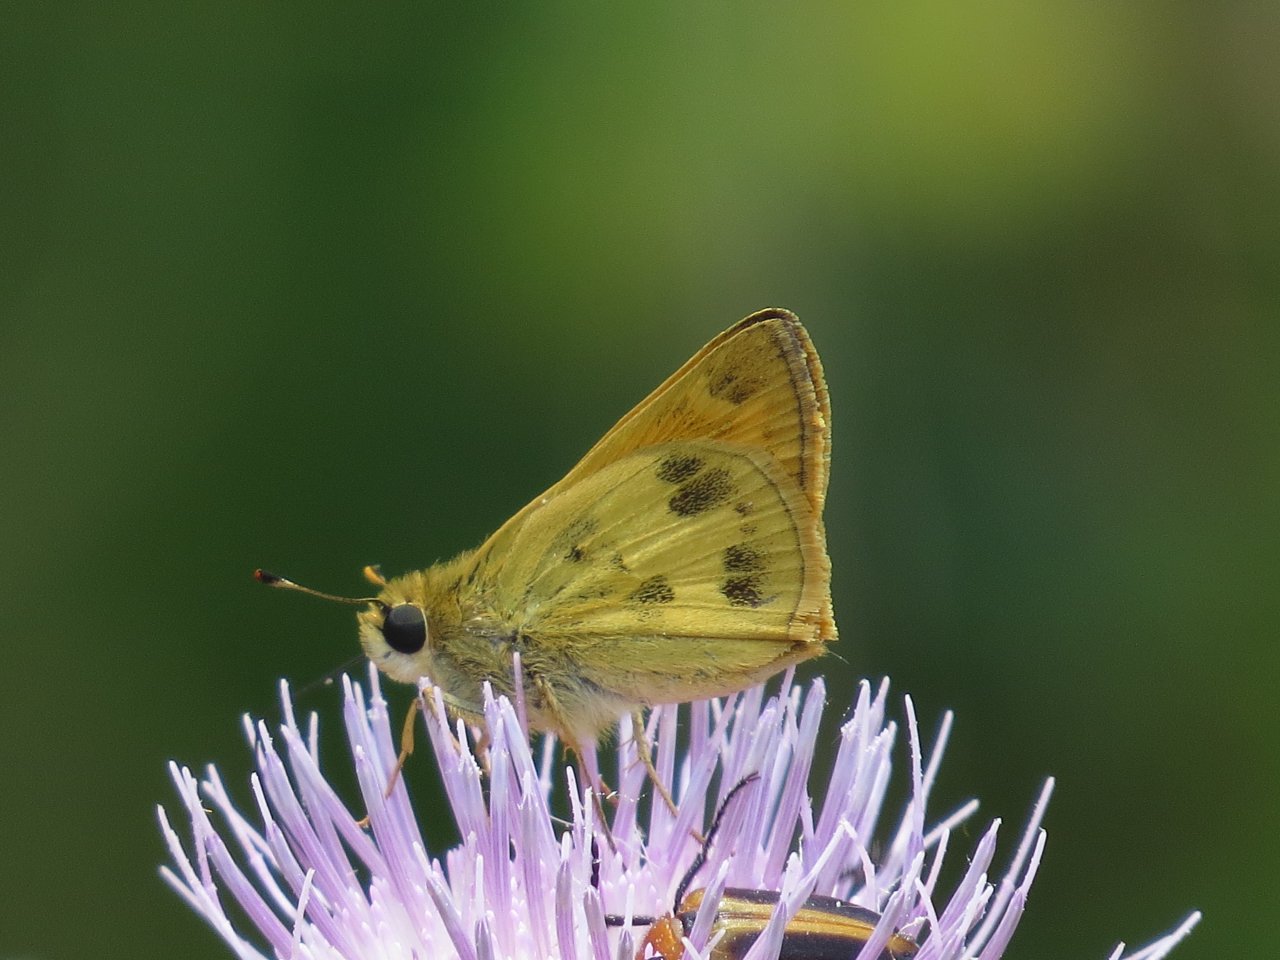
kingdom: Animalia
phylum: Arthropoda
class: Insecta
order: Lepidoptera
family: Hesperiidae
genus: Polites
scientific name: Polites vibex
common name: Whirlabout
